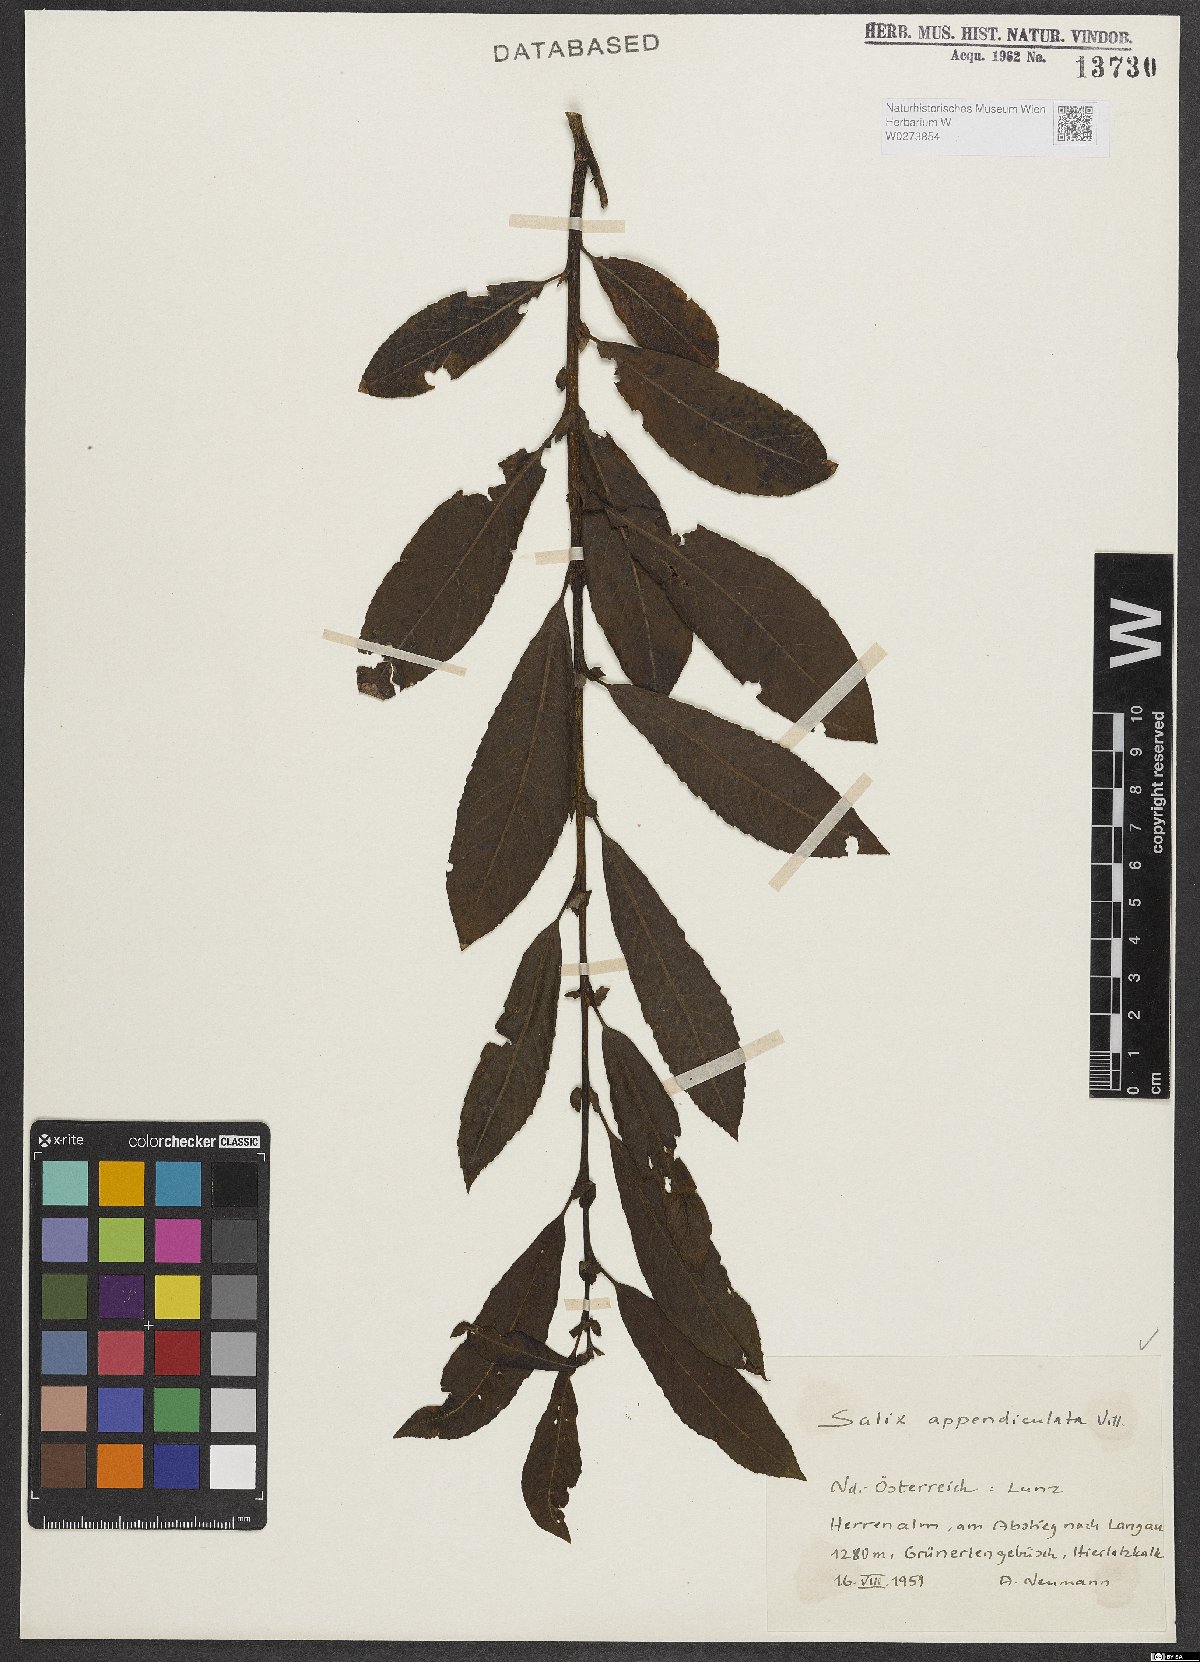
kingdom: Plantae
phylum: Tracheophyta
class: Magnoliopsida
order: Malpighiales
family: Salicaceae
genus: Salix
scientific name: Salix appendiculata
